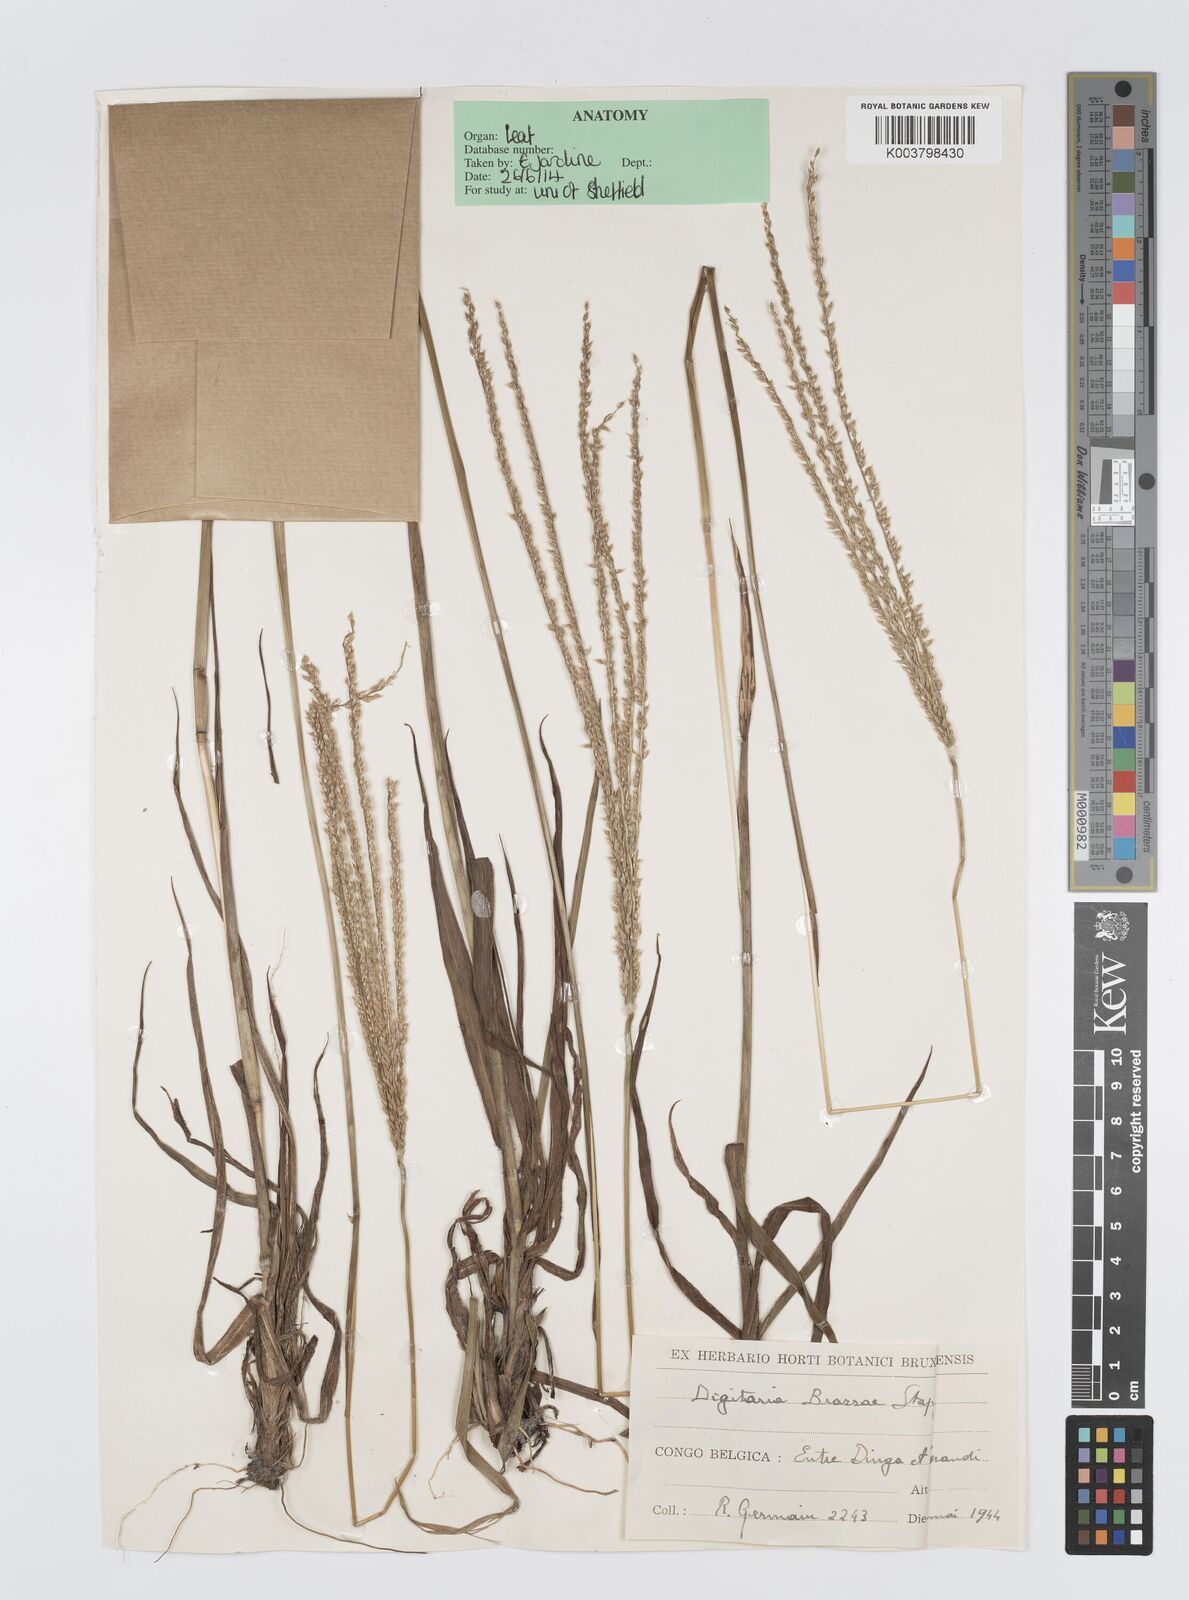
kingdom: Plantae
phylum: Tracheophyta
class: Liliopsida
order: Poales
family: Poaceae
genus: Digitaria
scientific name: Digitaria brazzae
